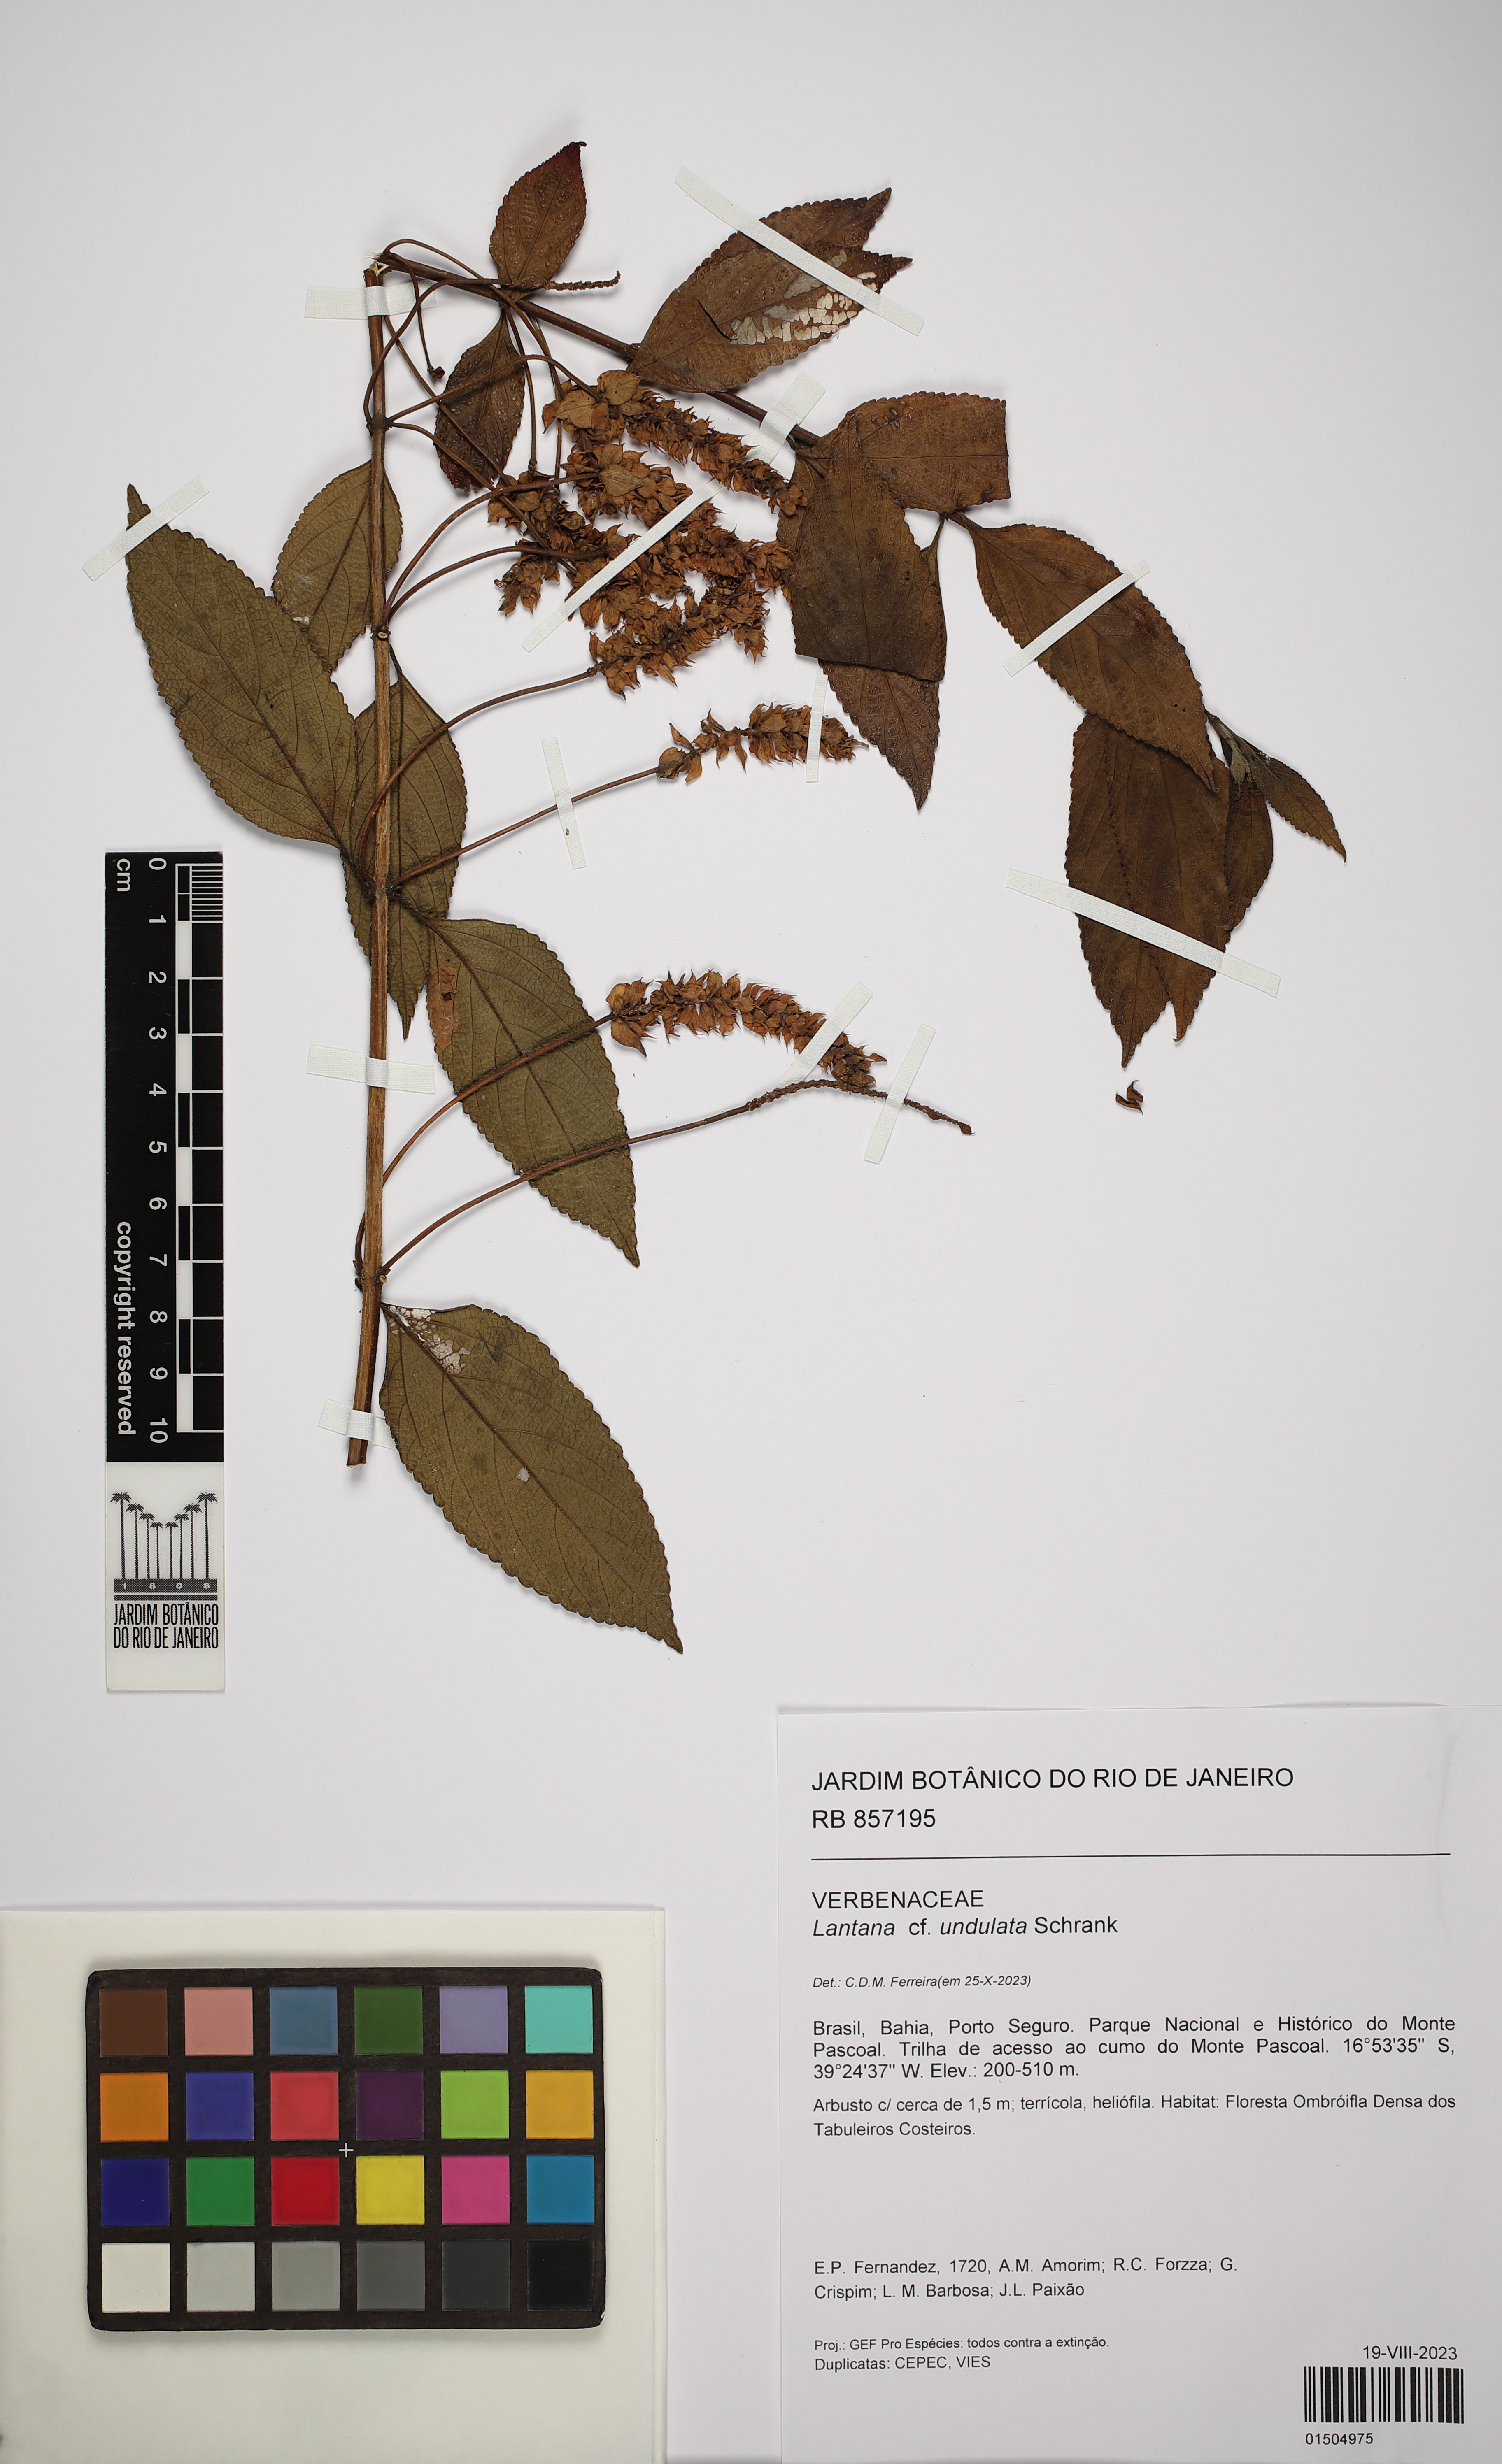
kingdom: Plantae
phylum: Tracheophyta
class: Magnoliopsida
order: Lamiales
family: Verbenaceae
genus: Lantana
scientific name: Lantana undulata
